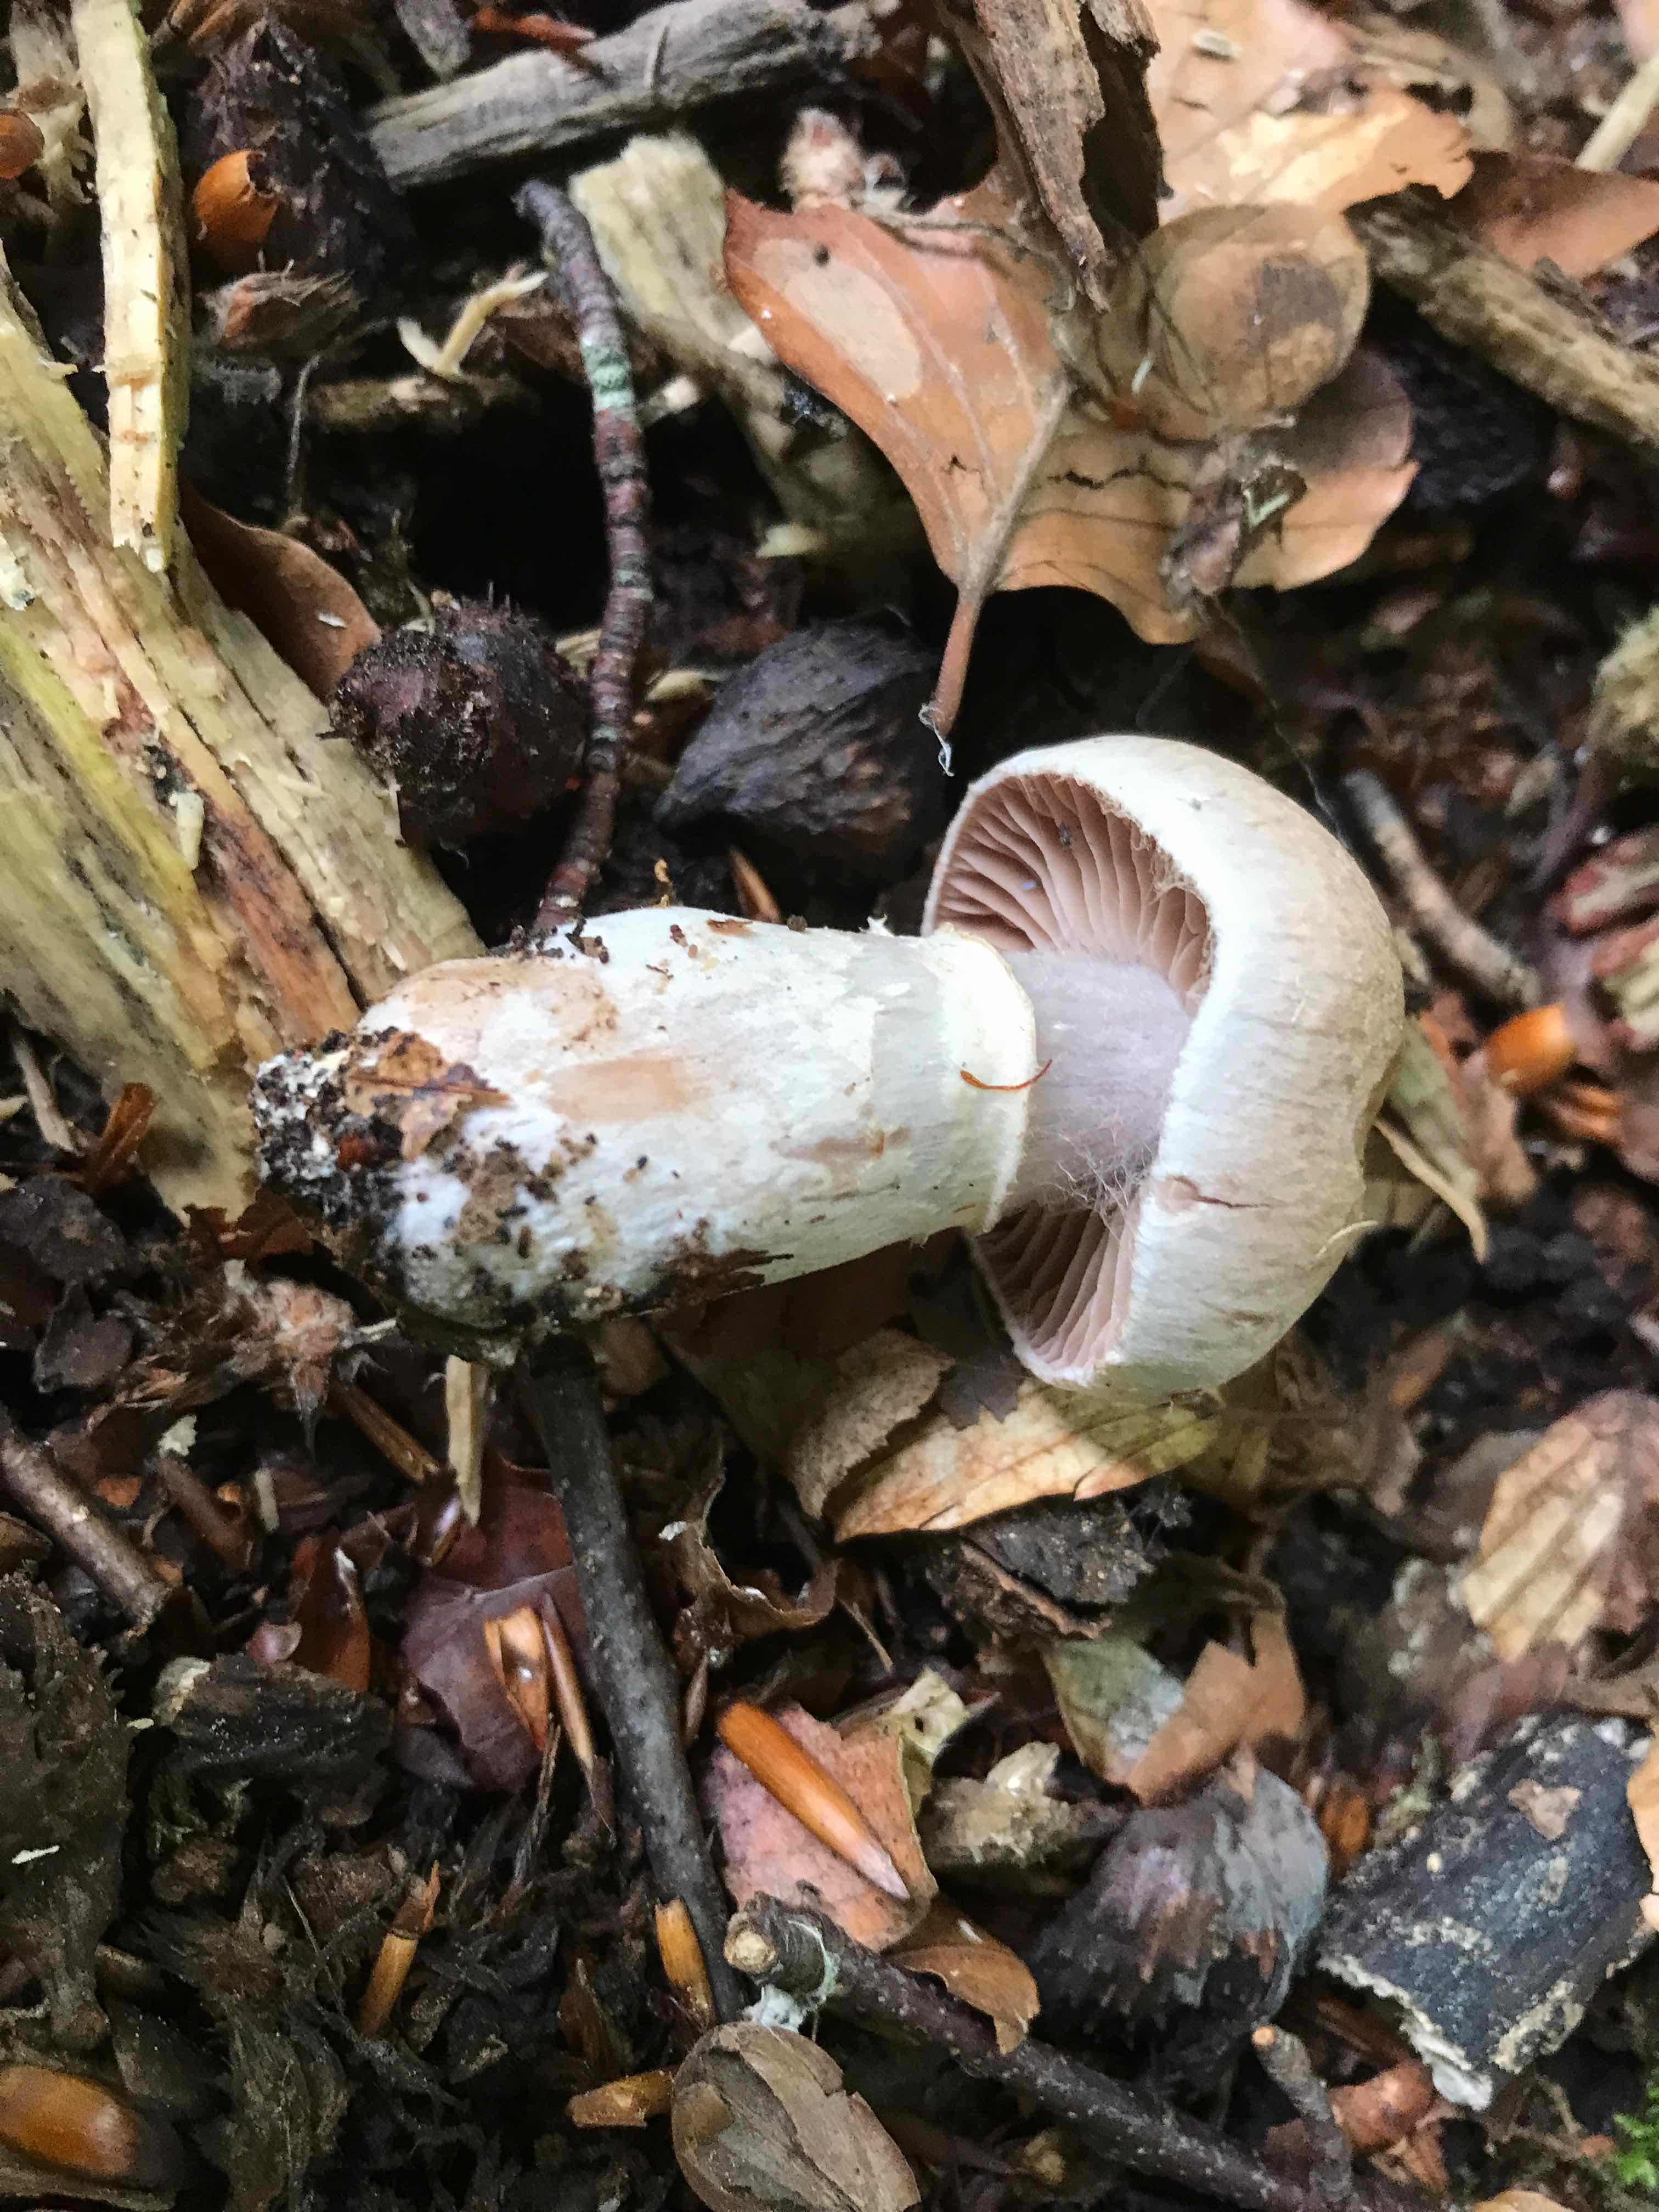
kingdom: Fungi
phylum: Basidiomycota
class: Agaricomycetes
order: Agaricales
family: Cortinariaceae
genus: Cortinarius
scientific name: Cortinarius torvus
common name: champignonagtig slørhat
